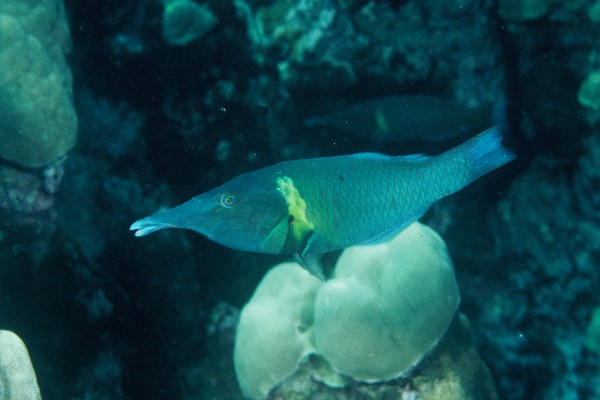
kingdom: Animalia
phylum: Chordata
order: Perciformes
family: Labridae
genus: Gomphosus
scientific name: Gomphosus varius
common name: Bird wrasse
